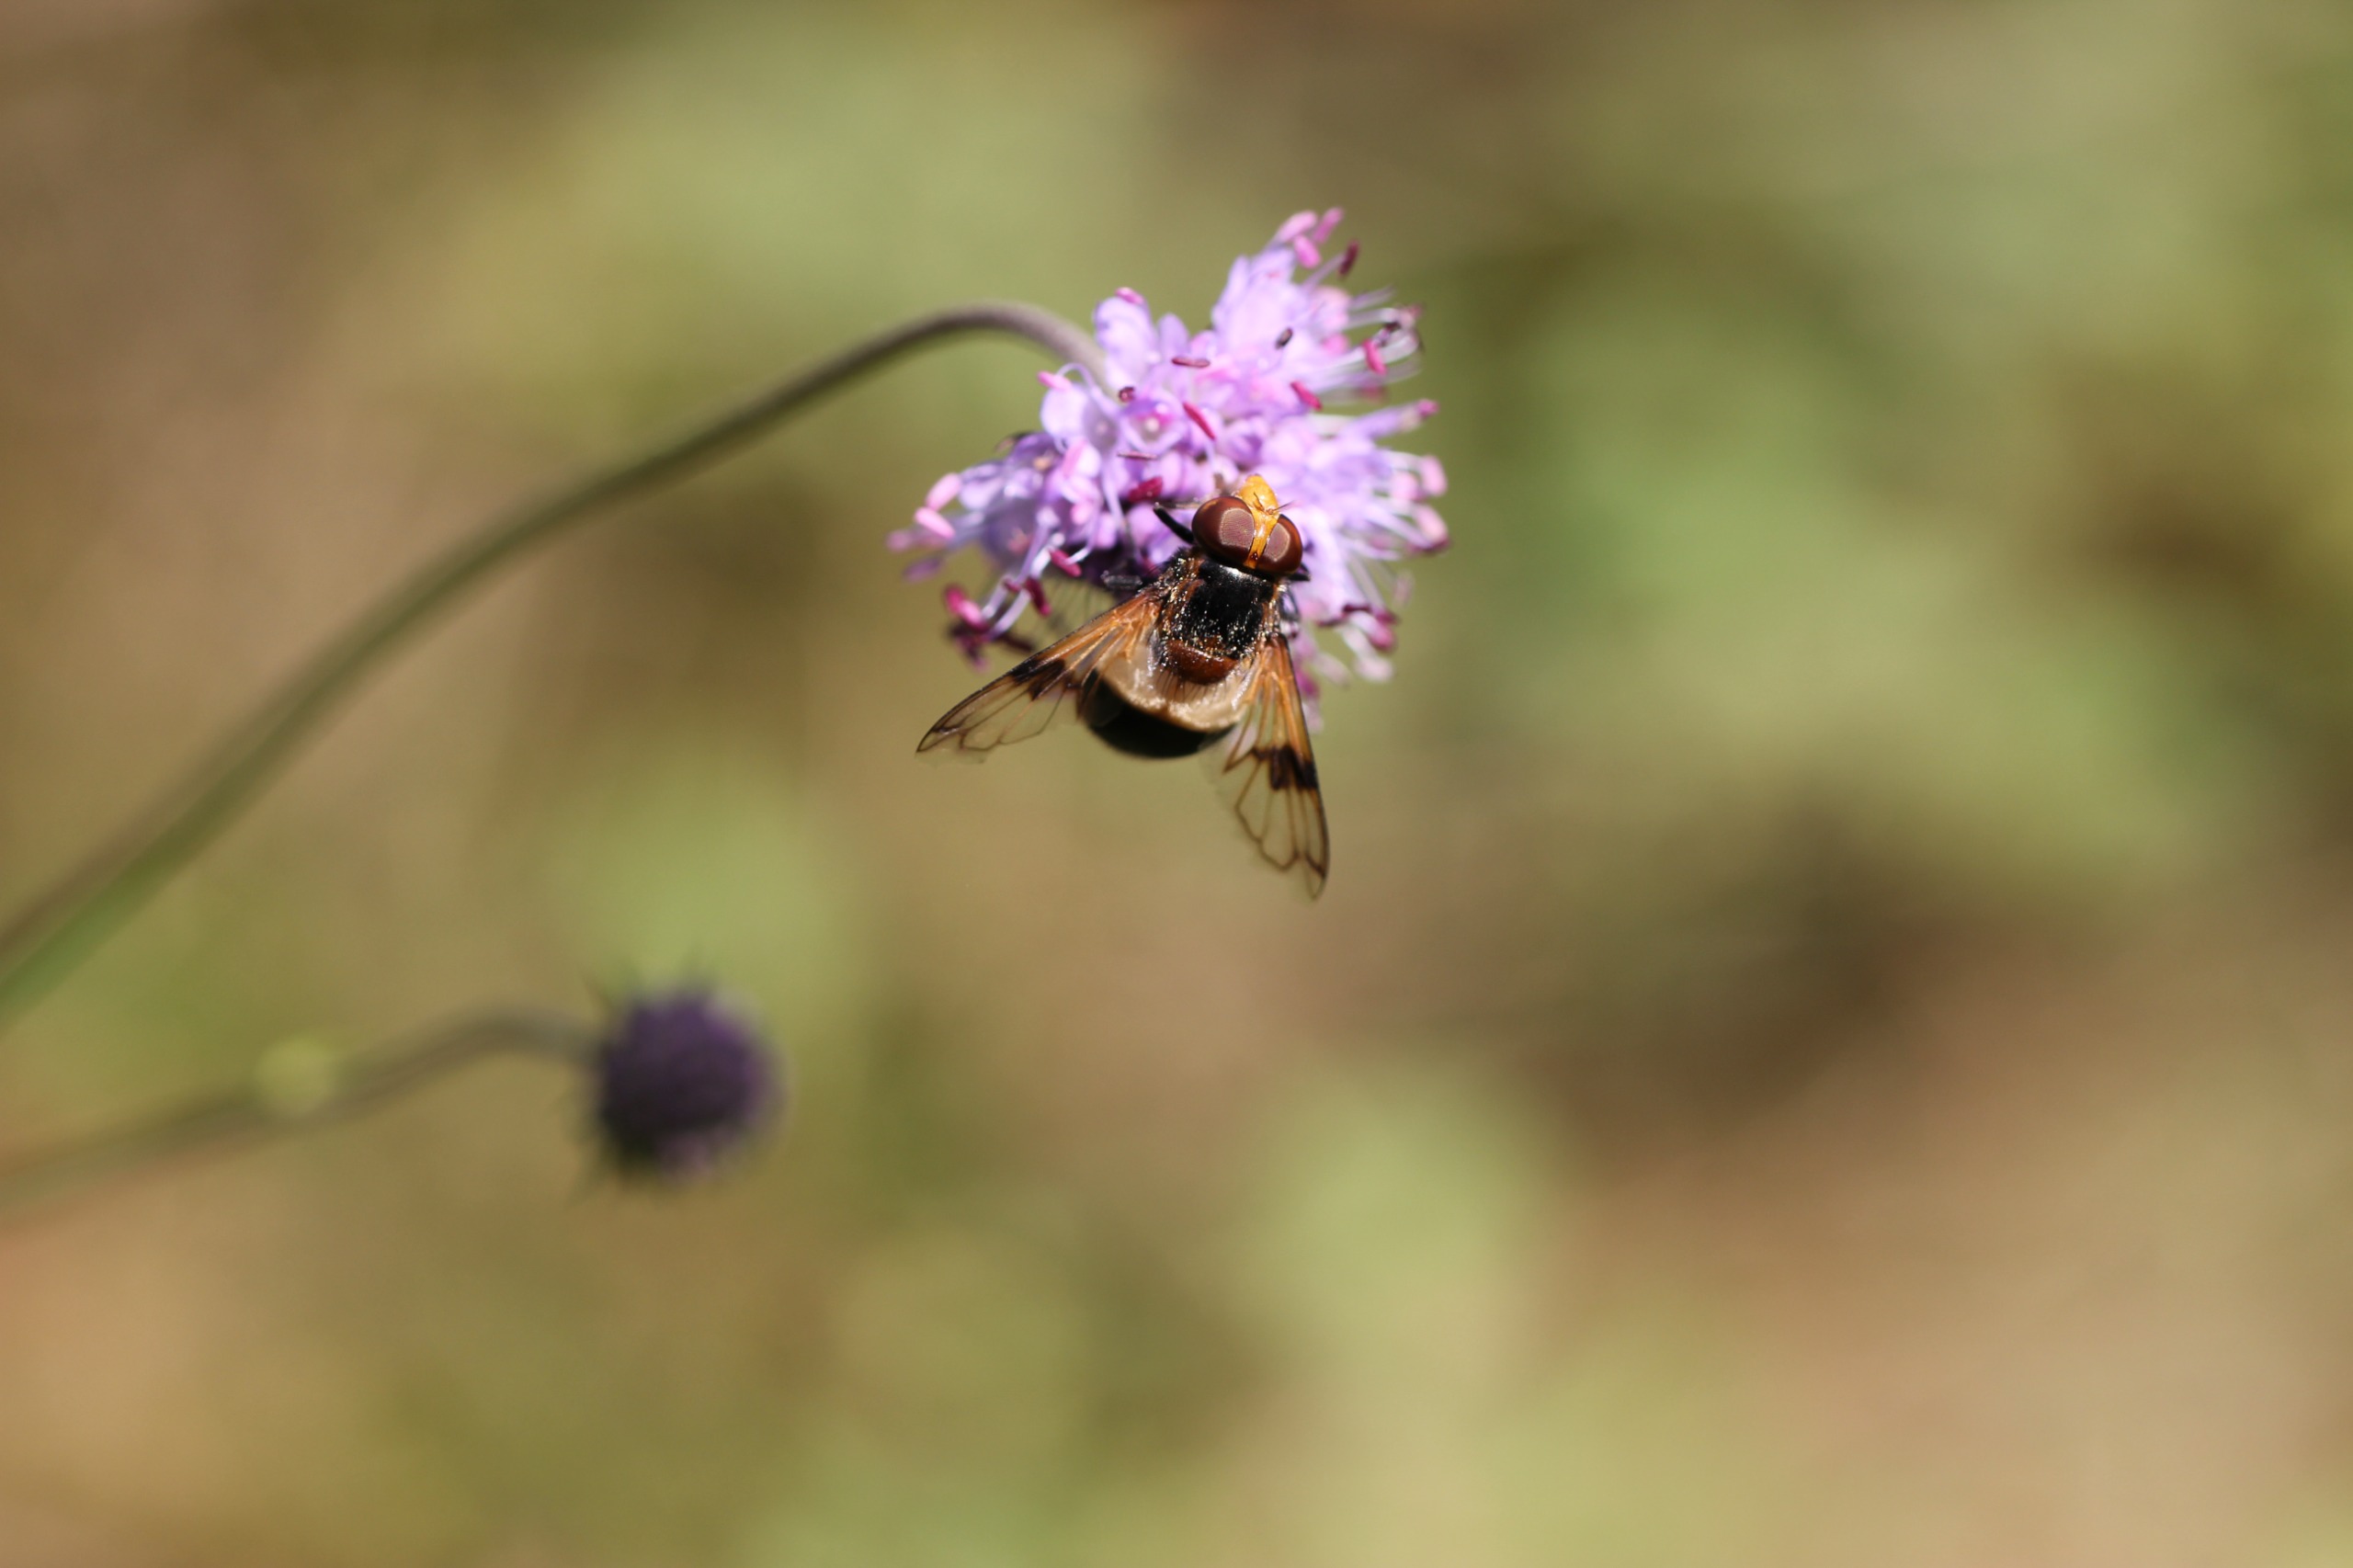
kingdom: Animalia
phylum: Arthropoda
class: Insecta
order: Diptera
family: Syrphidae
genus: Volucella
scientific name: Volucella pellucens
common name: Hvidbåndet humlesvirreflue
